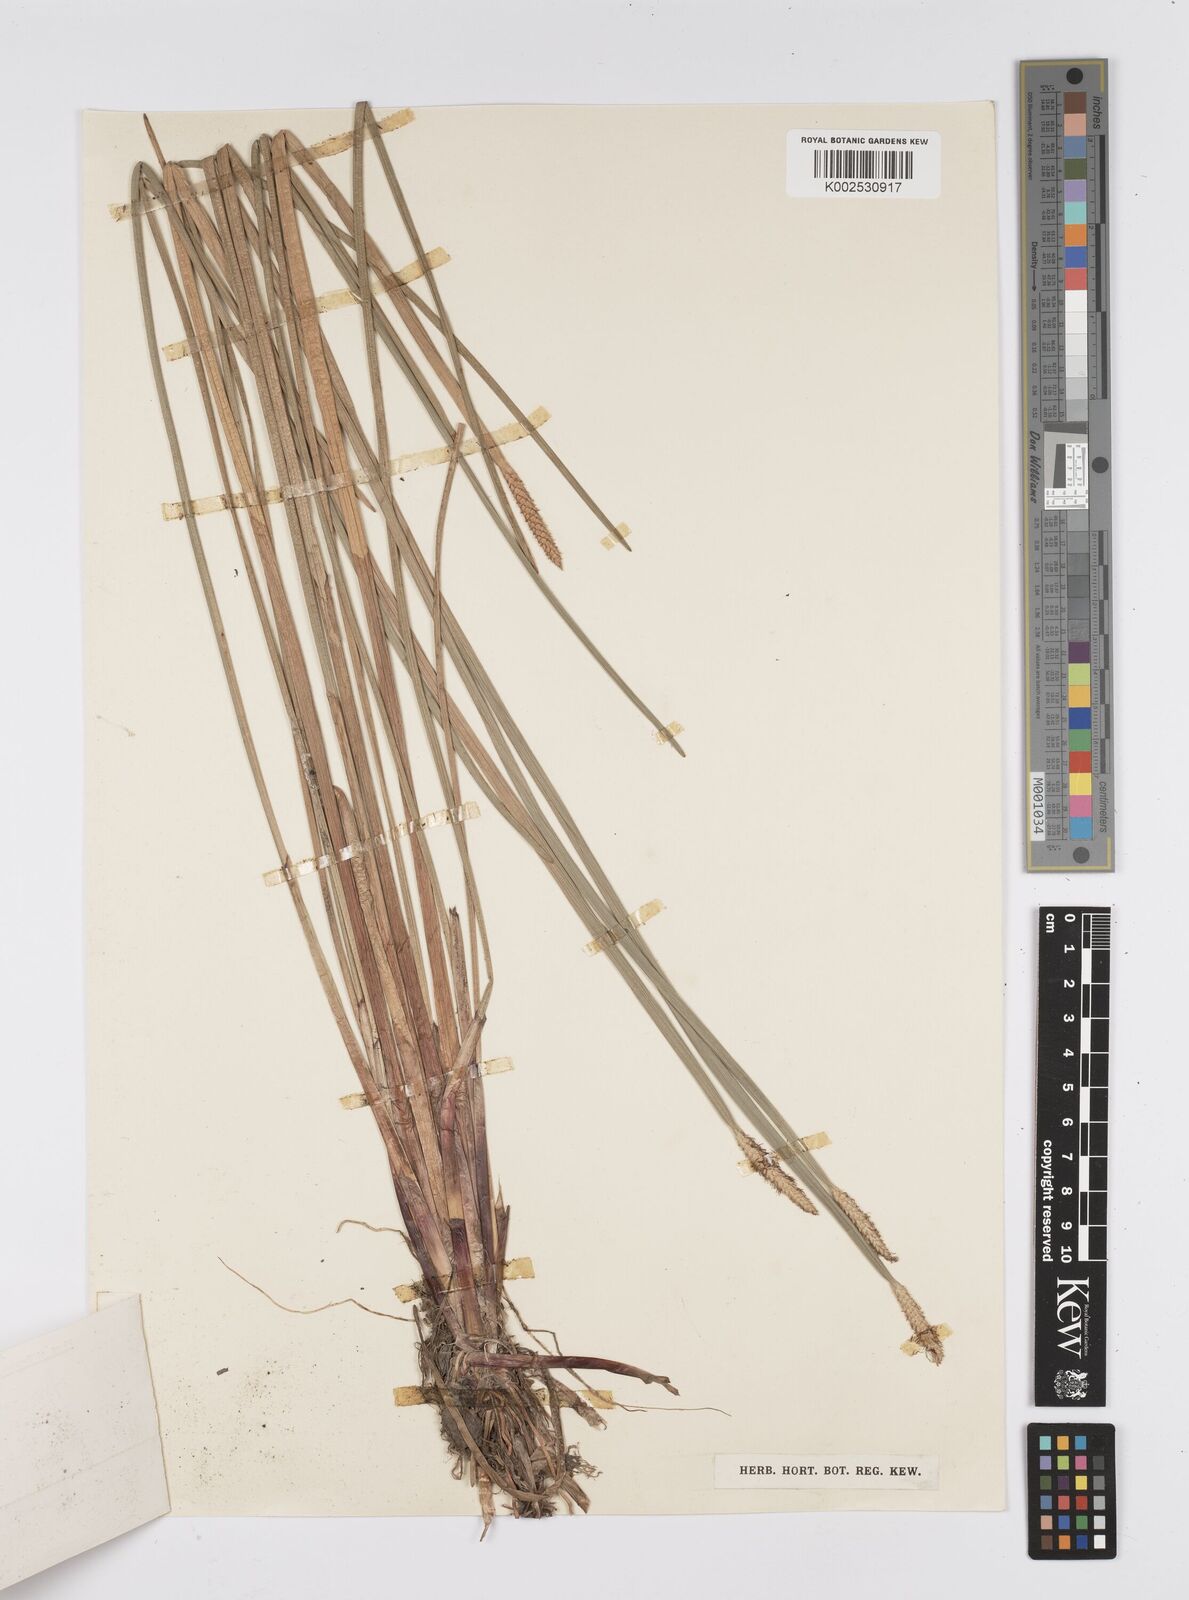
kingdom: Plantae
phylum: Tracheophyta
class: Liliopsida
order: Poales
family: Cyperaceae
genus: Eleocharis
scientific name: Eleocharis interstincta
